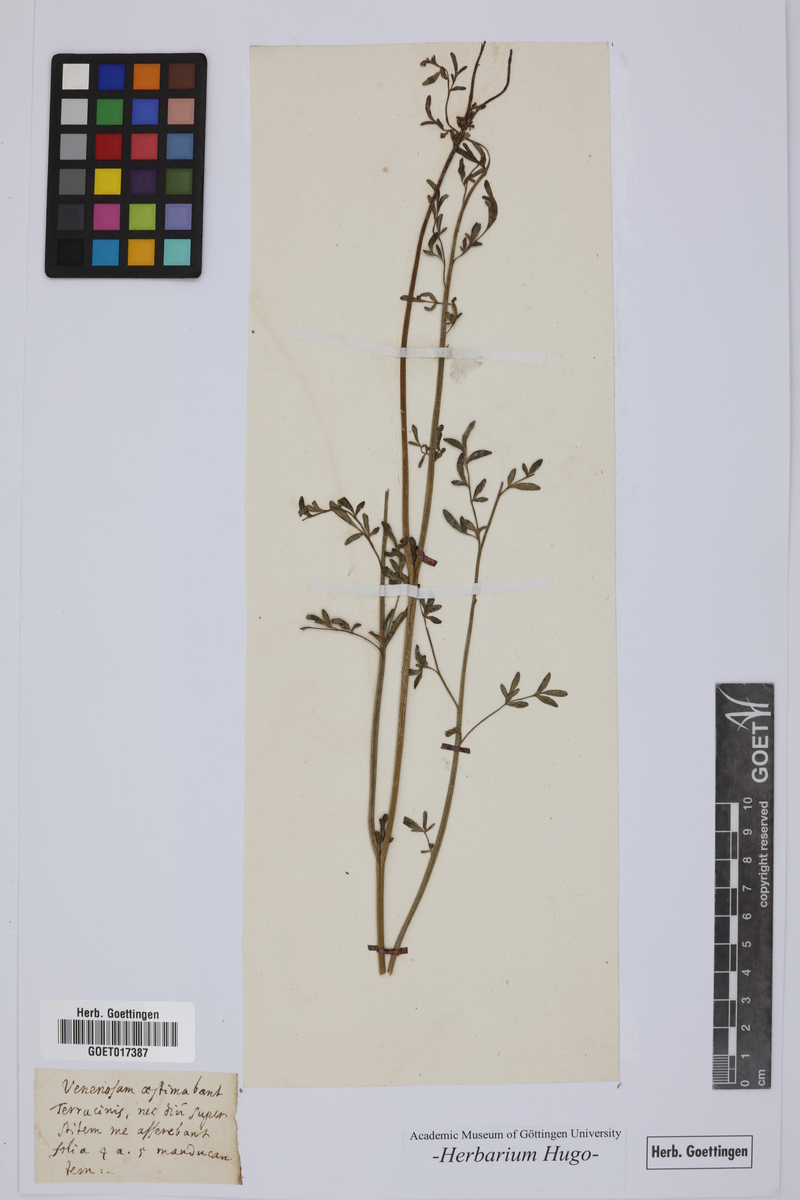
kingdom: Plantae
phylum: Tracheophyta
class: Magnoliopsida
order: Sapindales
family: Rutaceae
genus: Ruta
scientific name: Ruta
